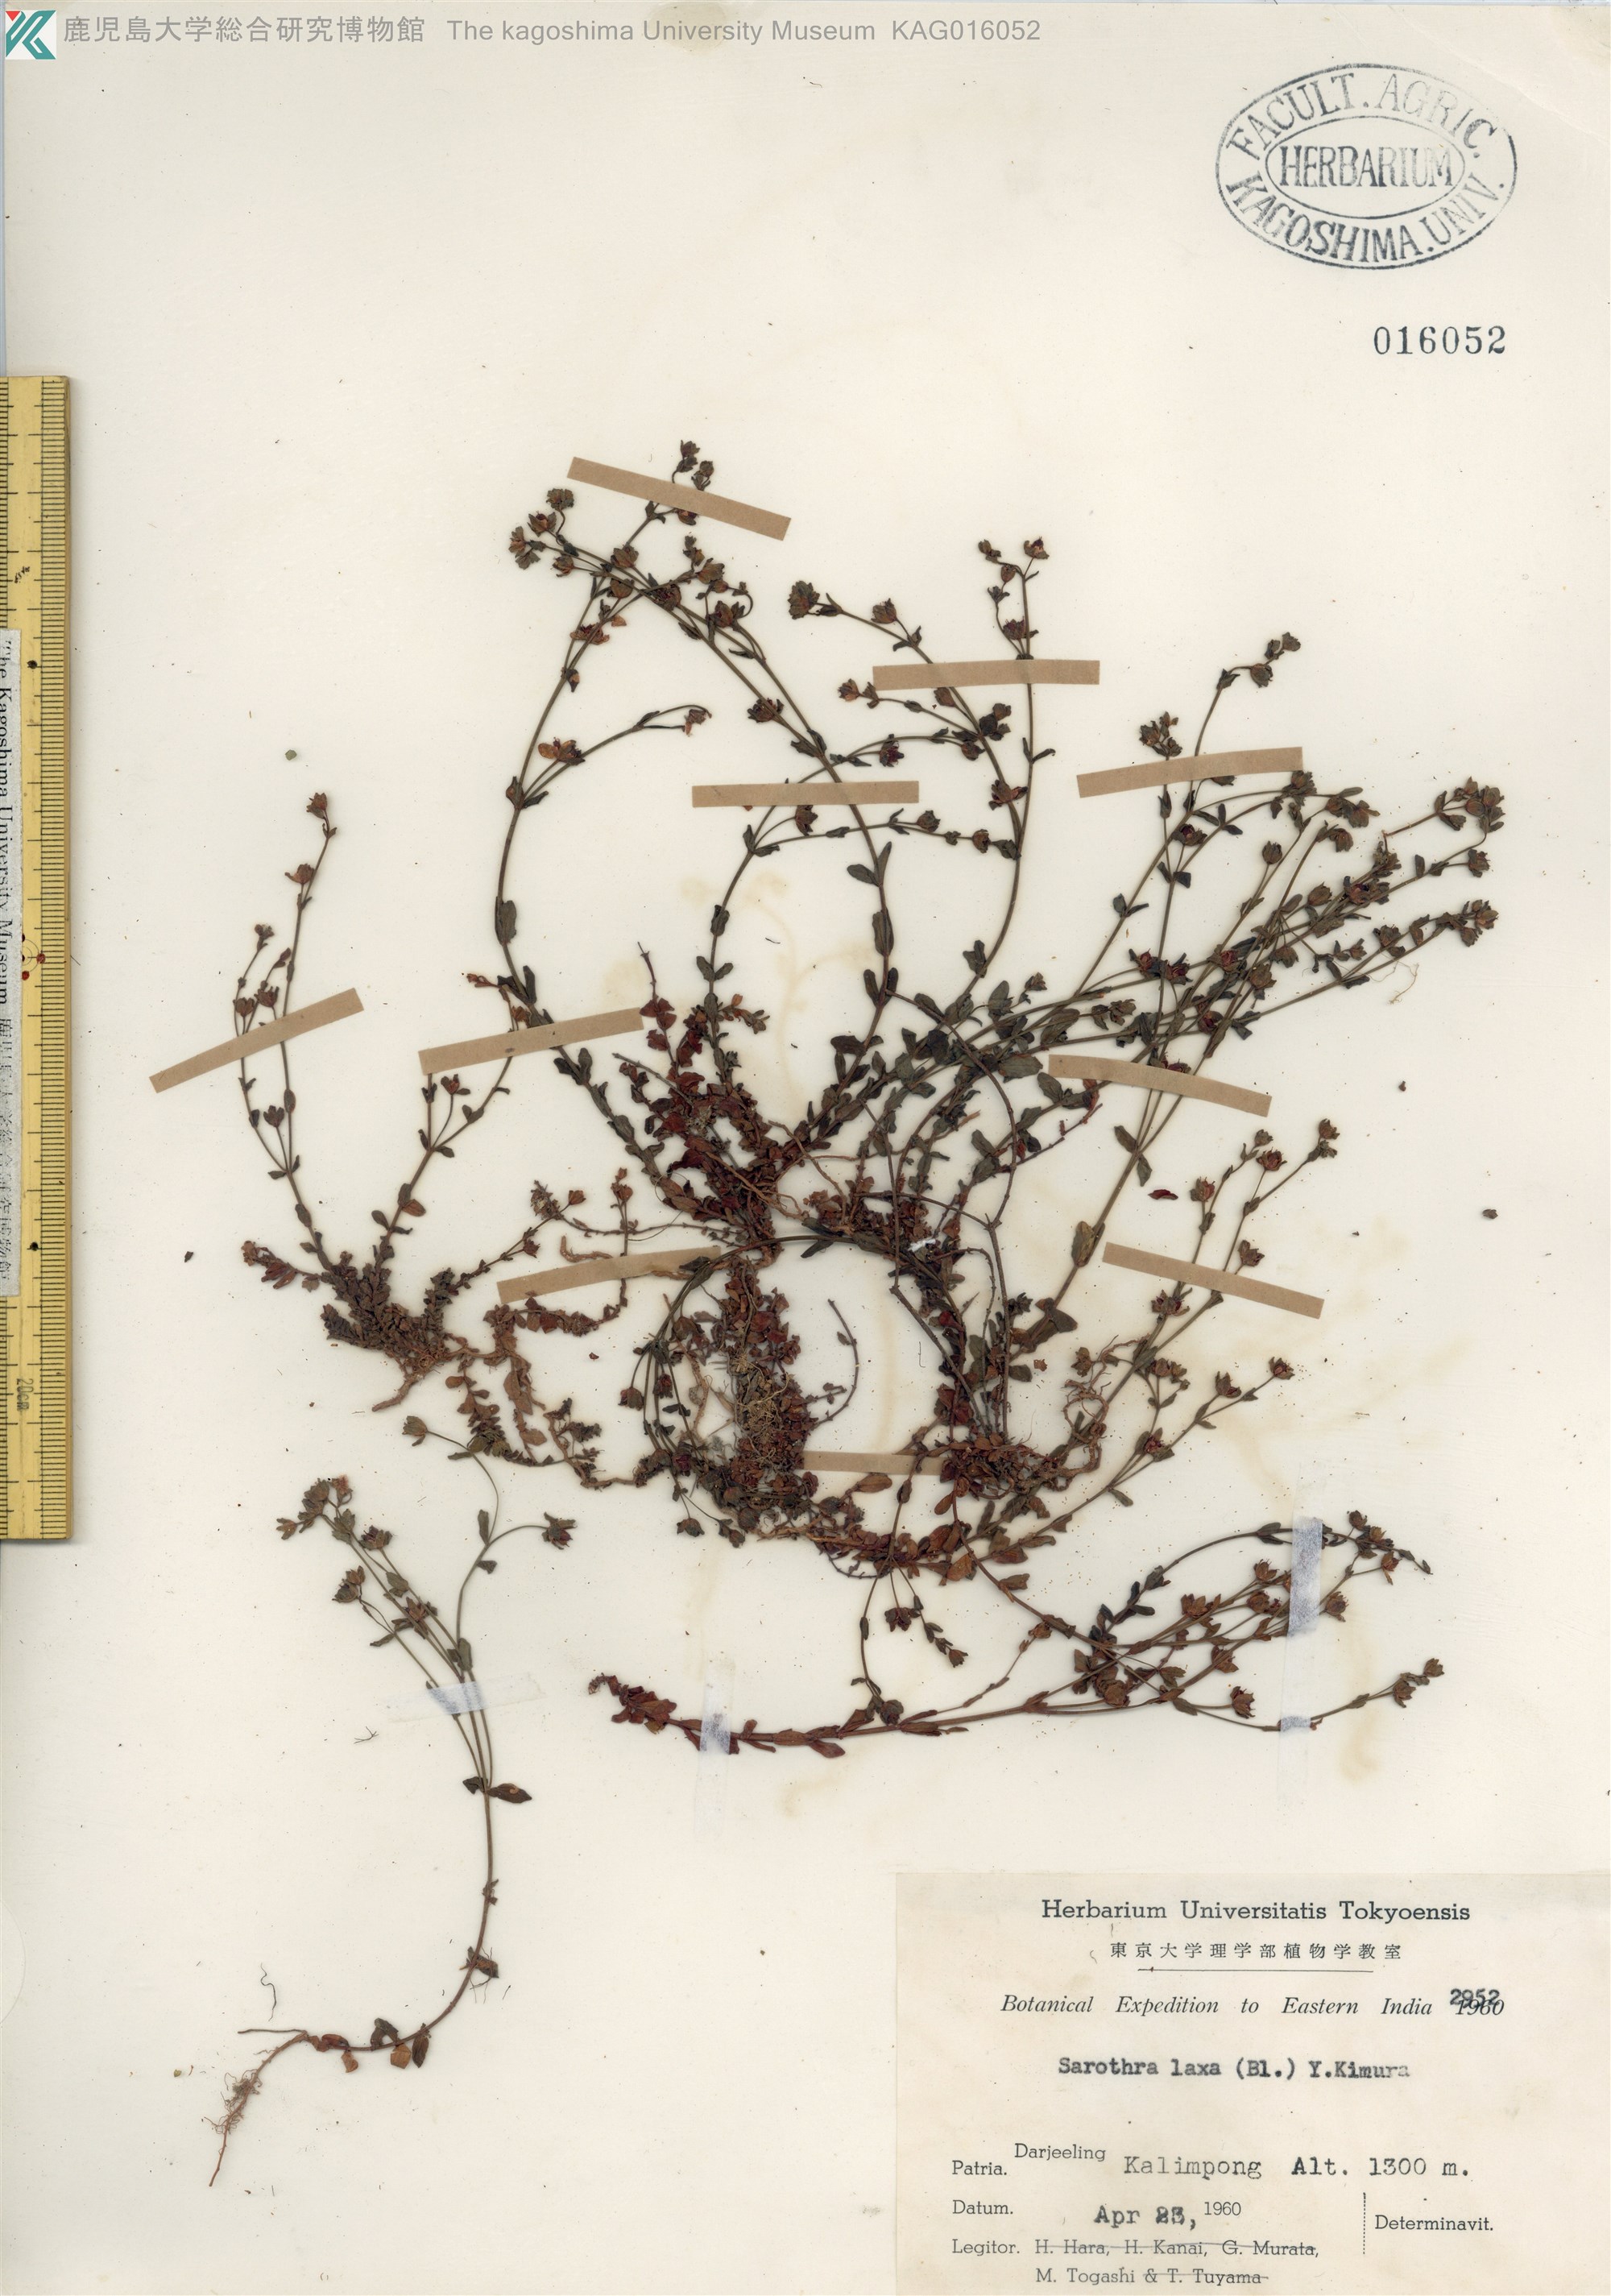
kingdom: Plantae
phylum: Tracheophyta
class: Magnoliopsida
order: Malpighiales
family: Hypericaceae
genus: Hypericum
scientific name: Hypericum japonicum
